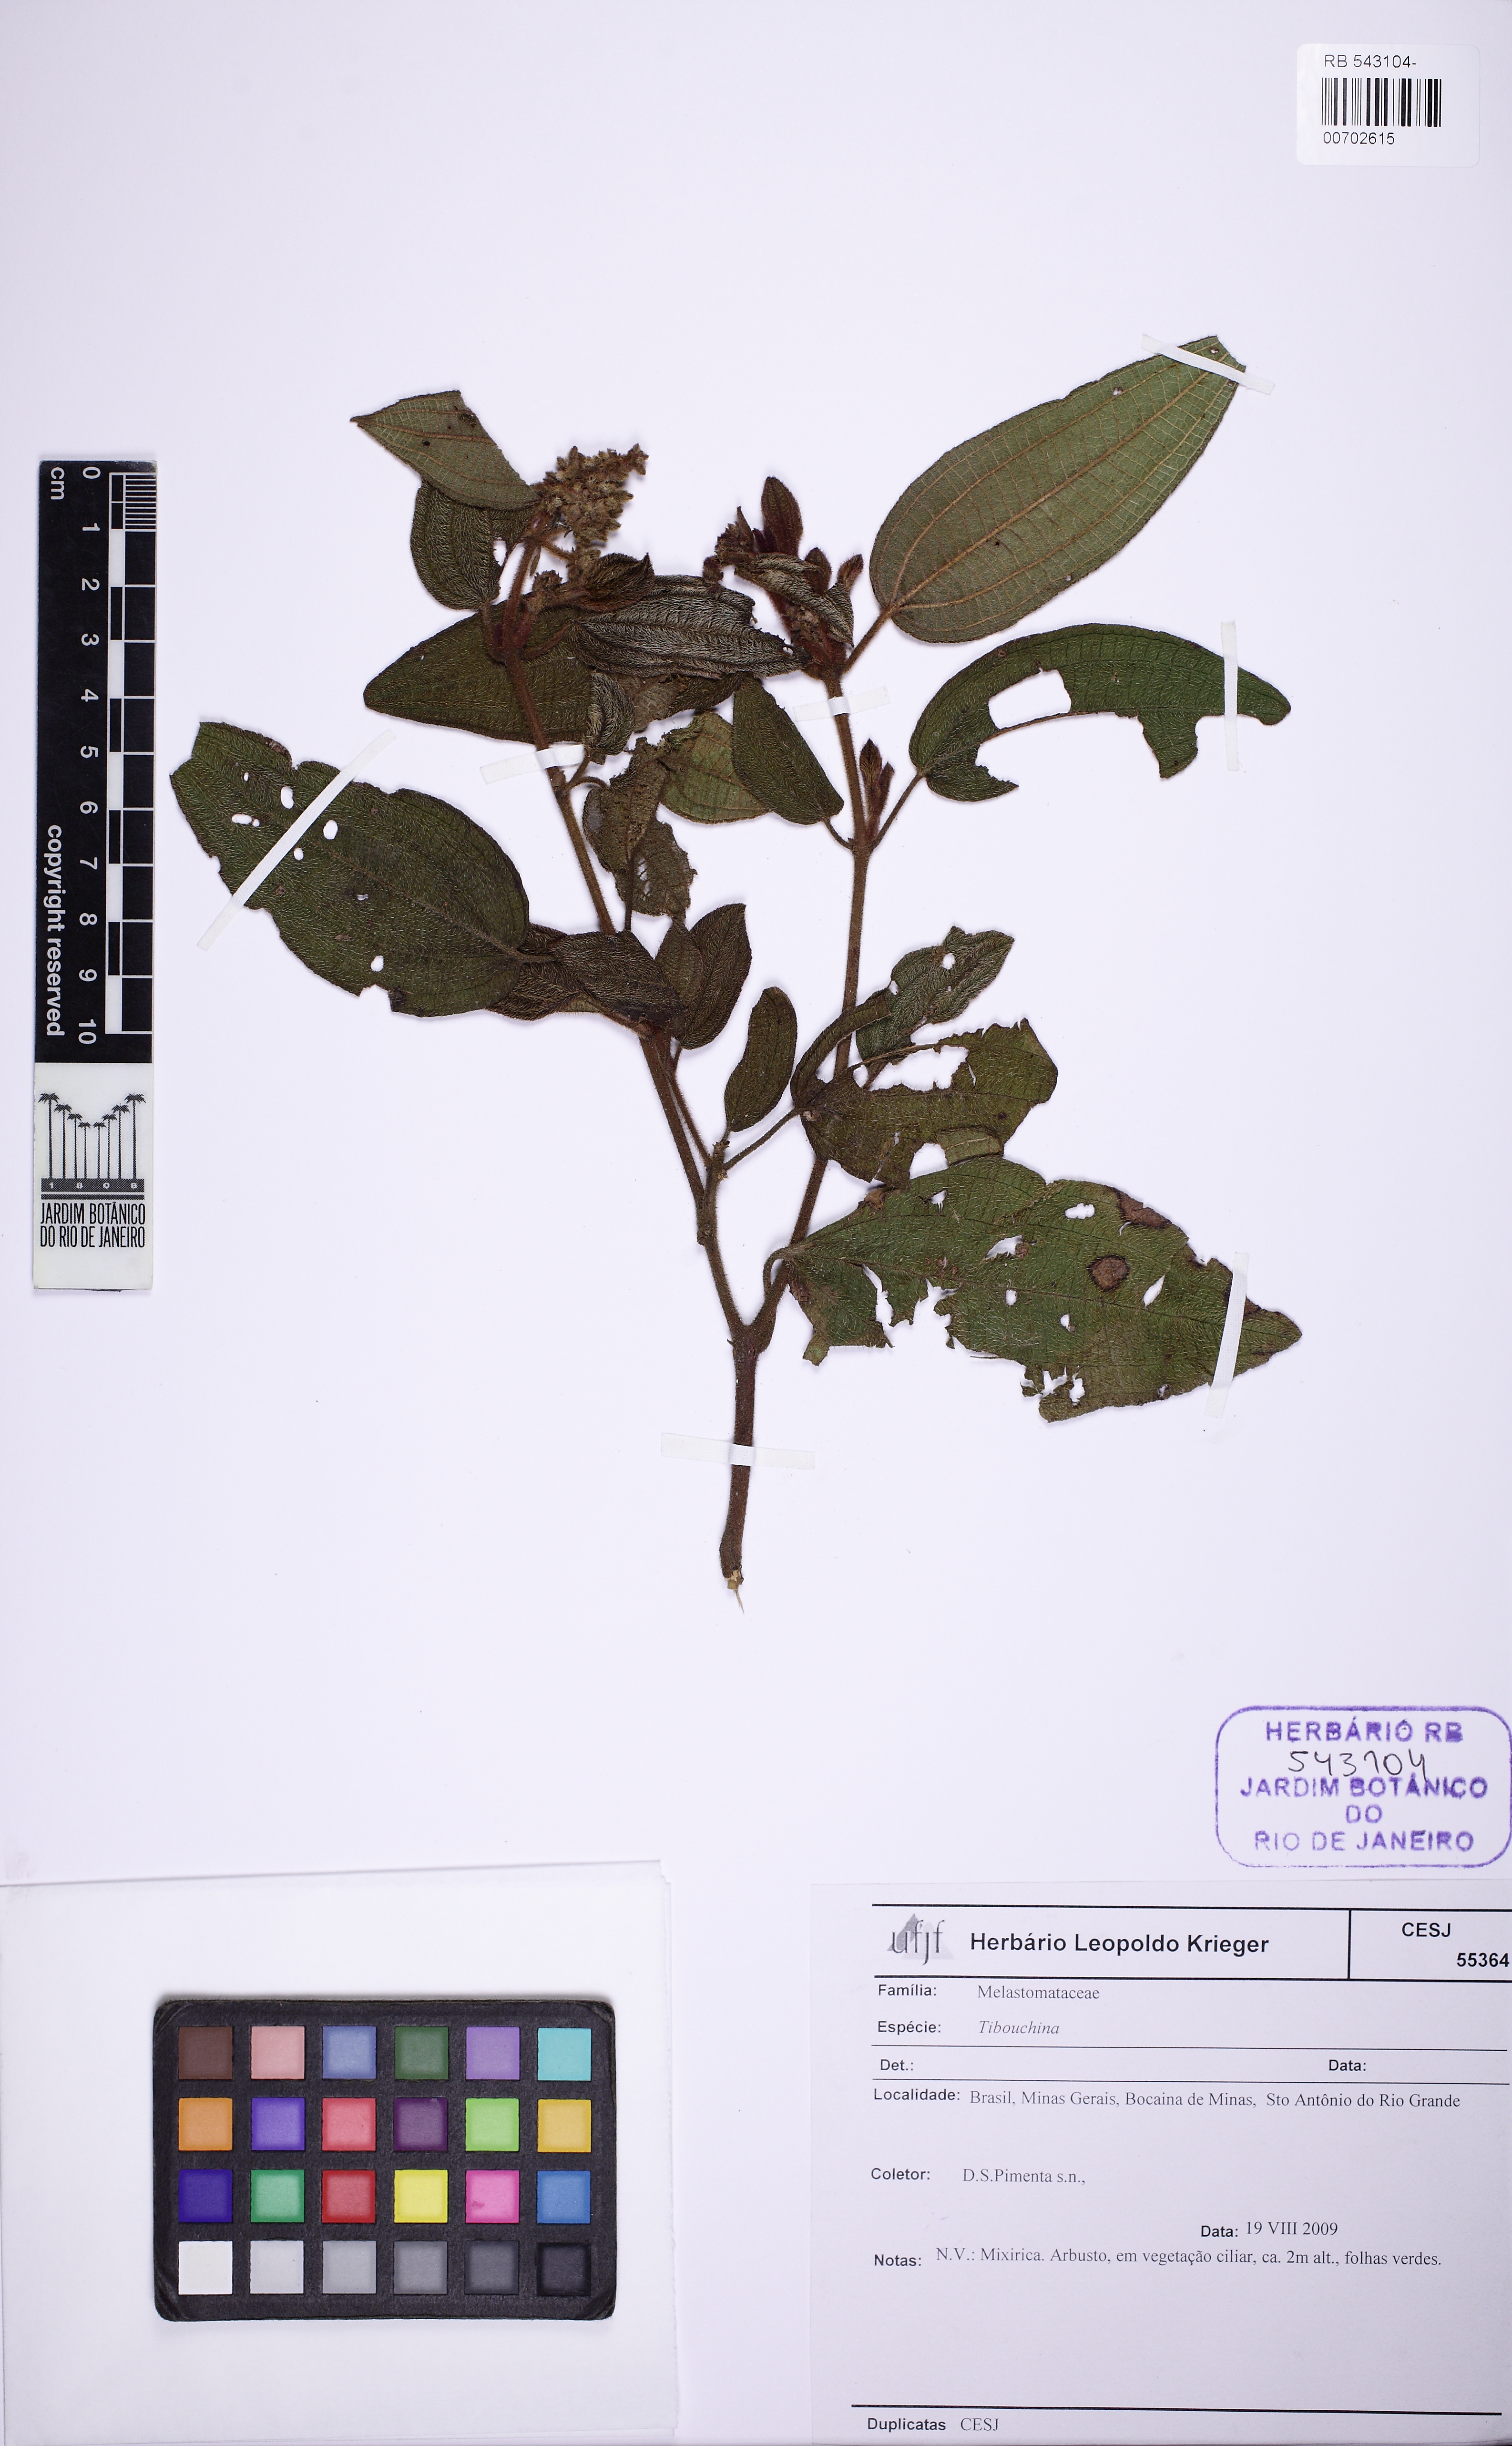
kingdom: Plantae
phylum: Tracheophyta
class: Magnoliopsida
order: Myrtales
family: Melastomataceae
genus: Tibouchina
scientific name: Tibouchina
